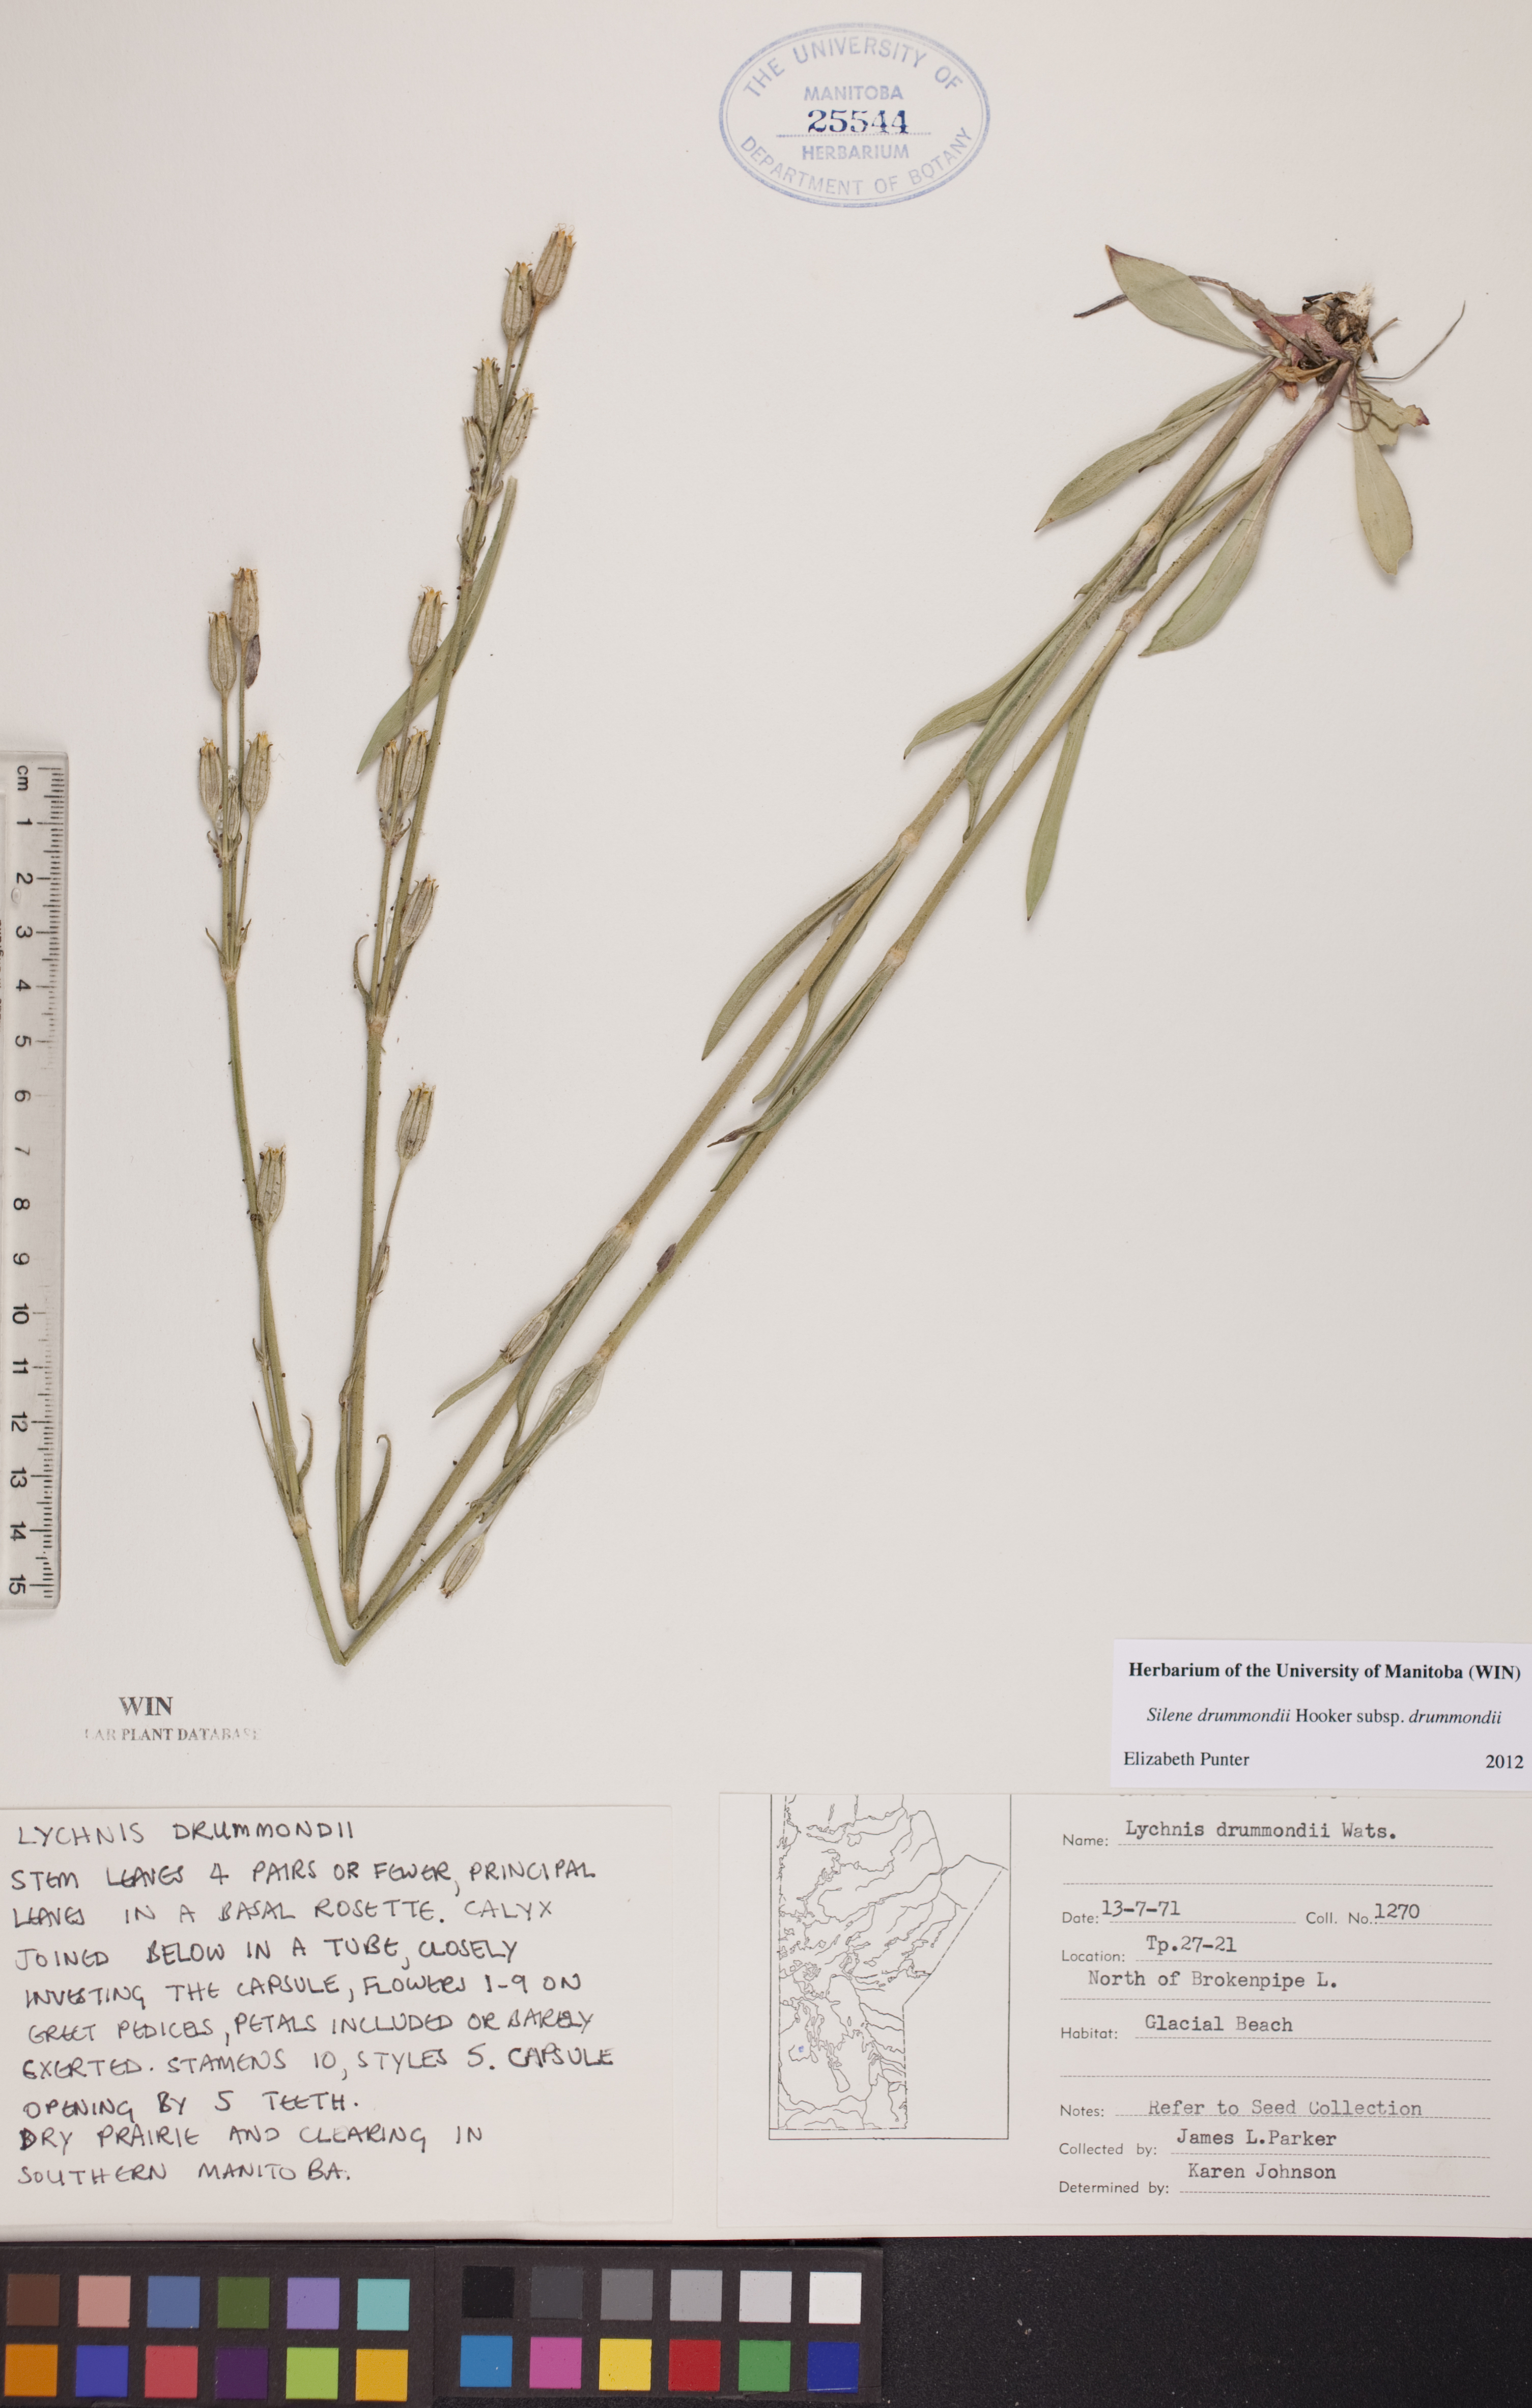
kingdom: Plantae
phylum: Tracheophyta
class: Magnoliopsida
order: Caryophyllales
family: Caryophyllaceae
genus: Silene
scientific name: Silene drummondii
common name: Drummond's catchfly
